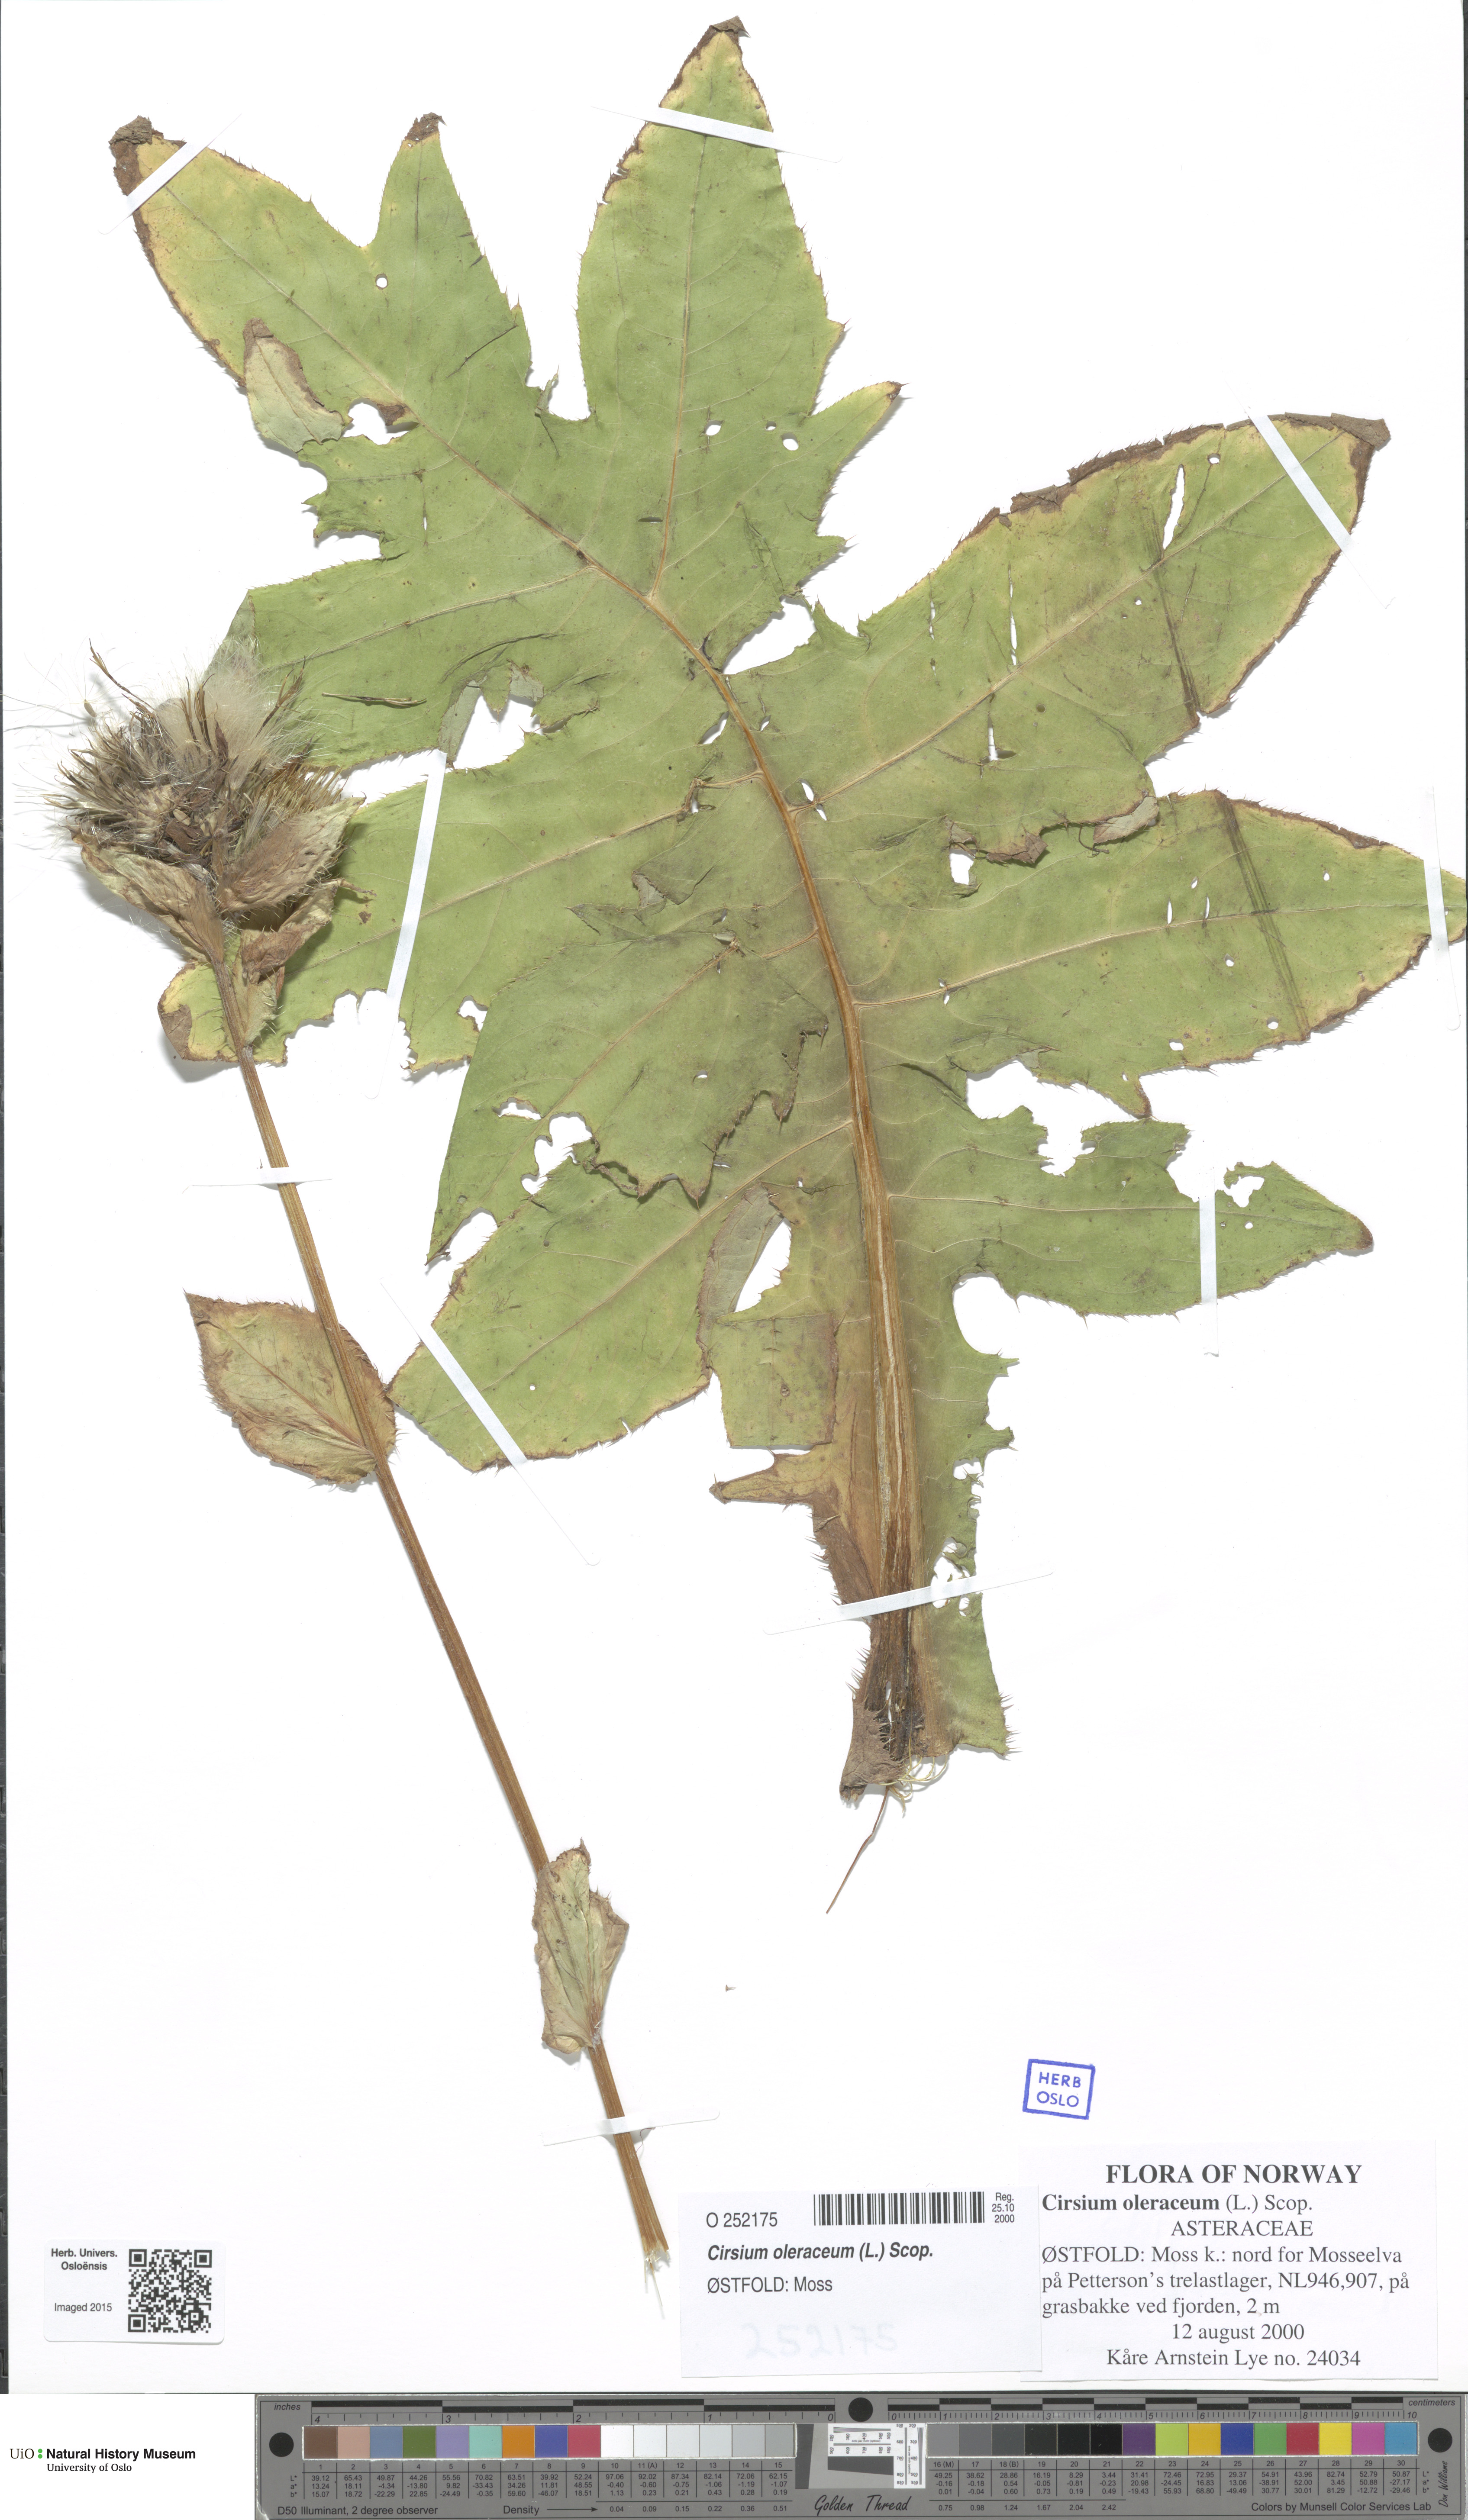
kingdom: Plantae
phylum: Tracheophyta
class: Magnoliopsida
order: Asterales
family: Asteraceae
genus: Cirsium
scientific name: Cirsium oleraceum
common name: Cabbage thistle
